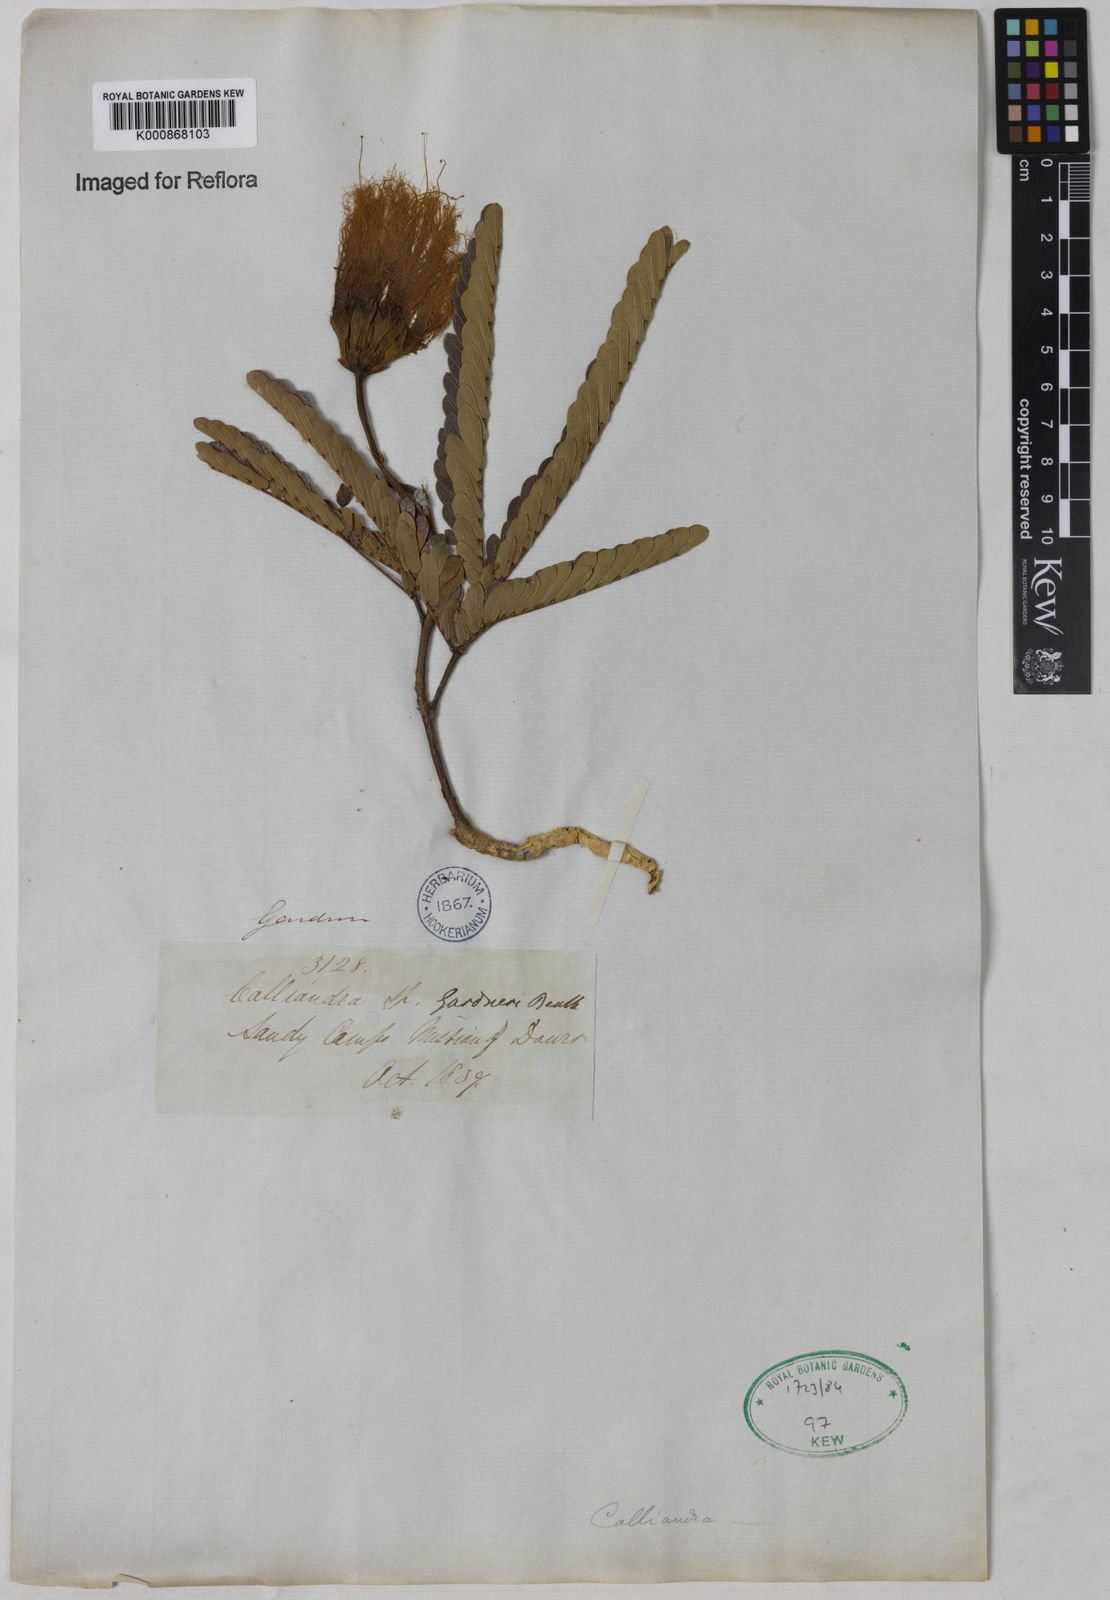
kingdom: Plantae
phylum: Tracheophyta
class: Magnoliopsida
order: Fabales
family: Fabaceae
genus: Calliandra
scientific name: Calliandra gardneri
